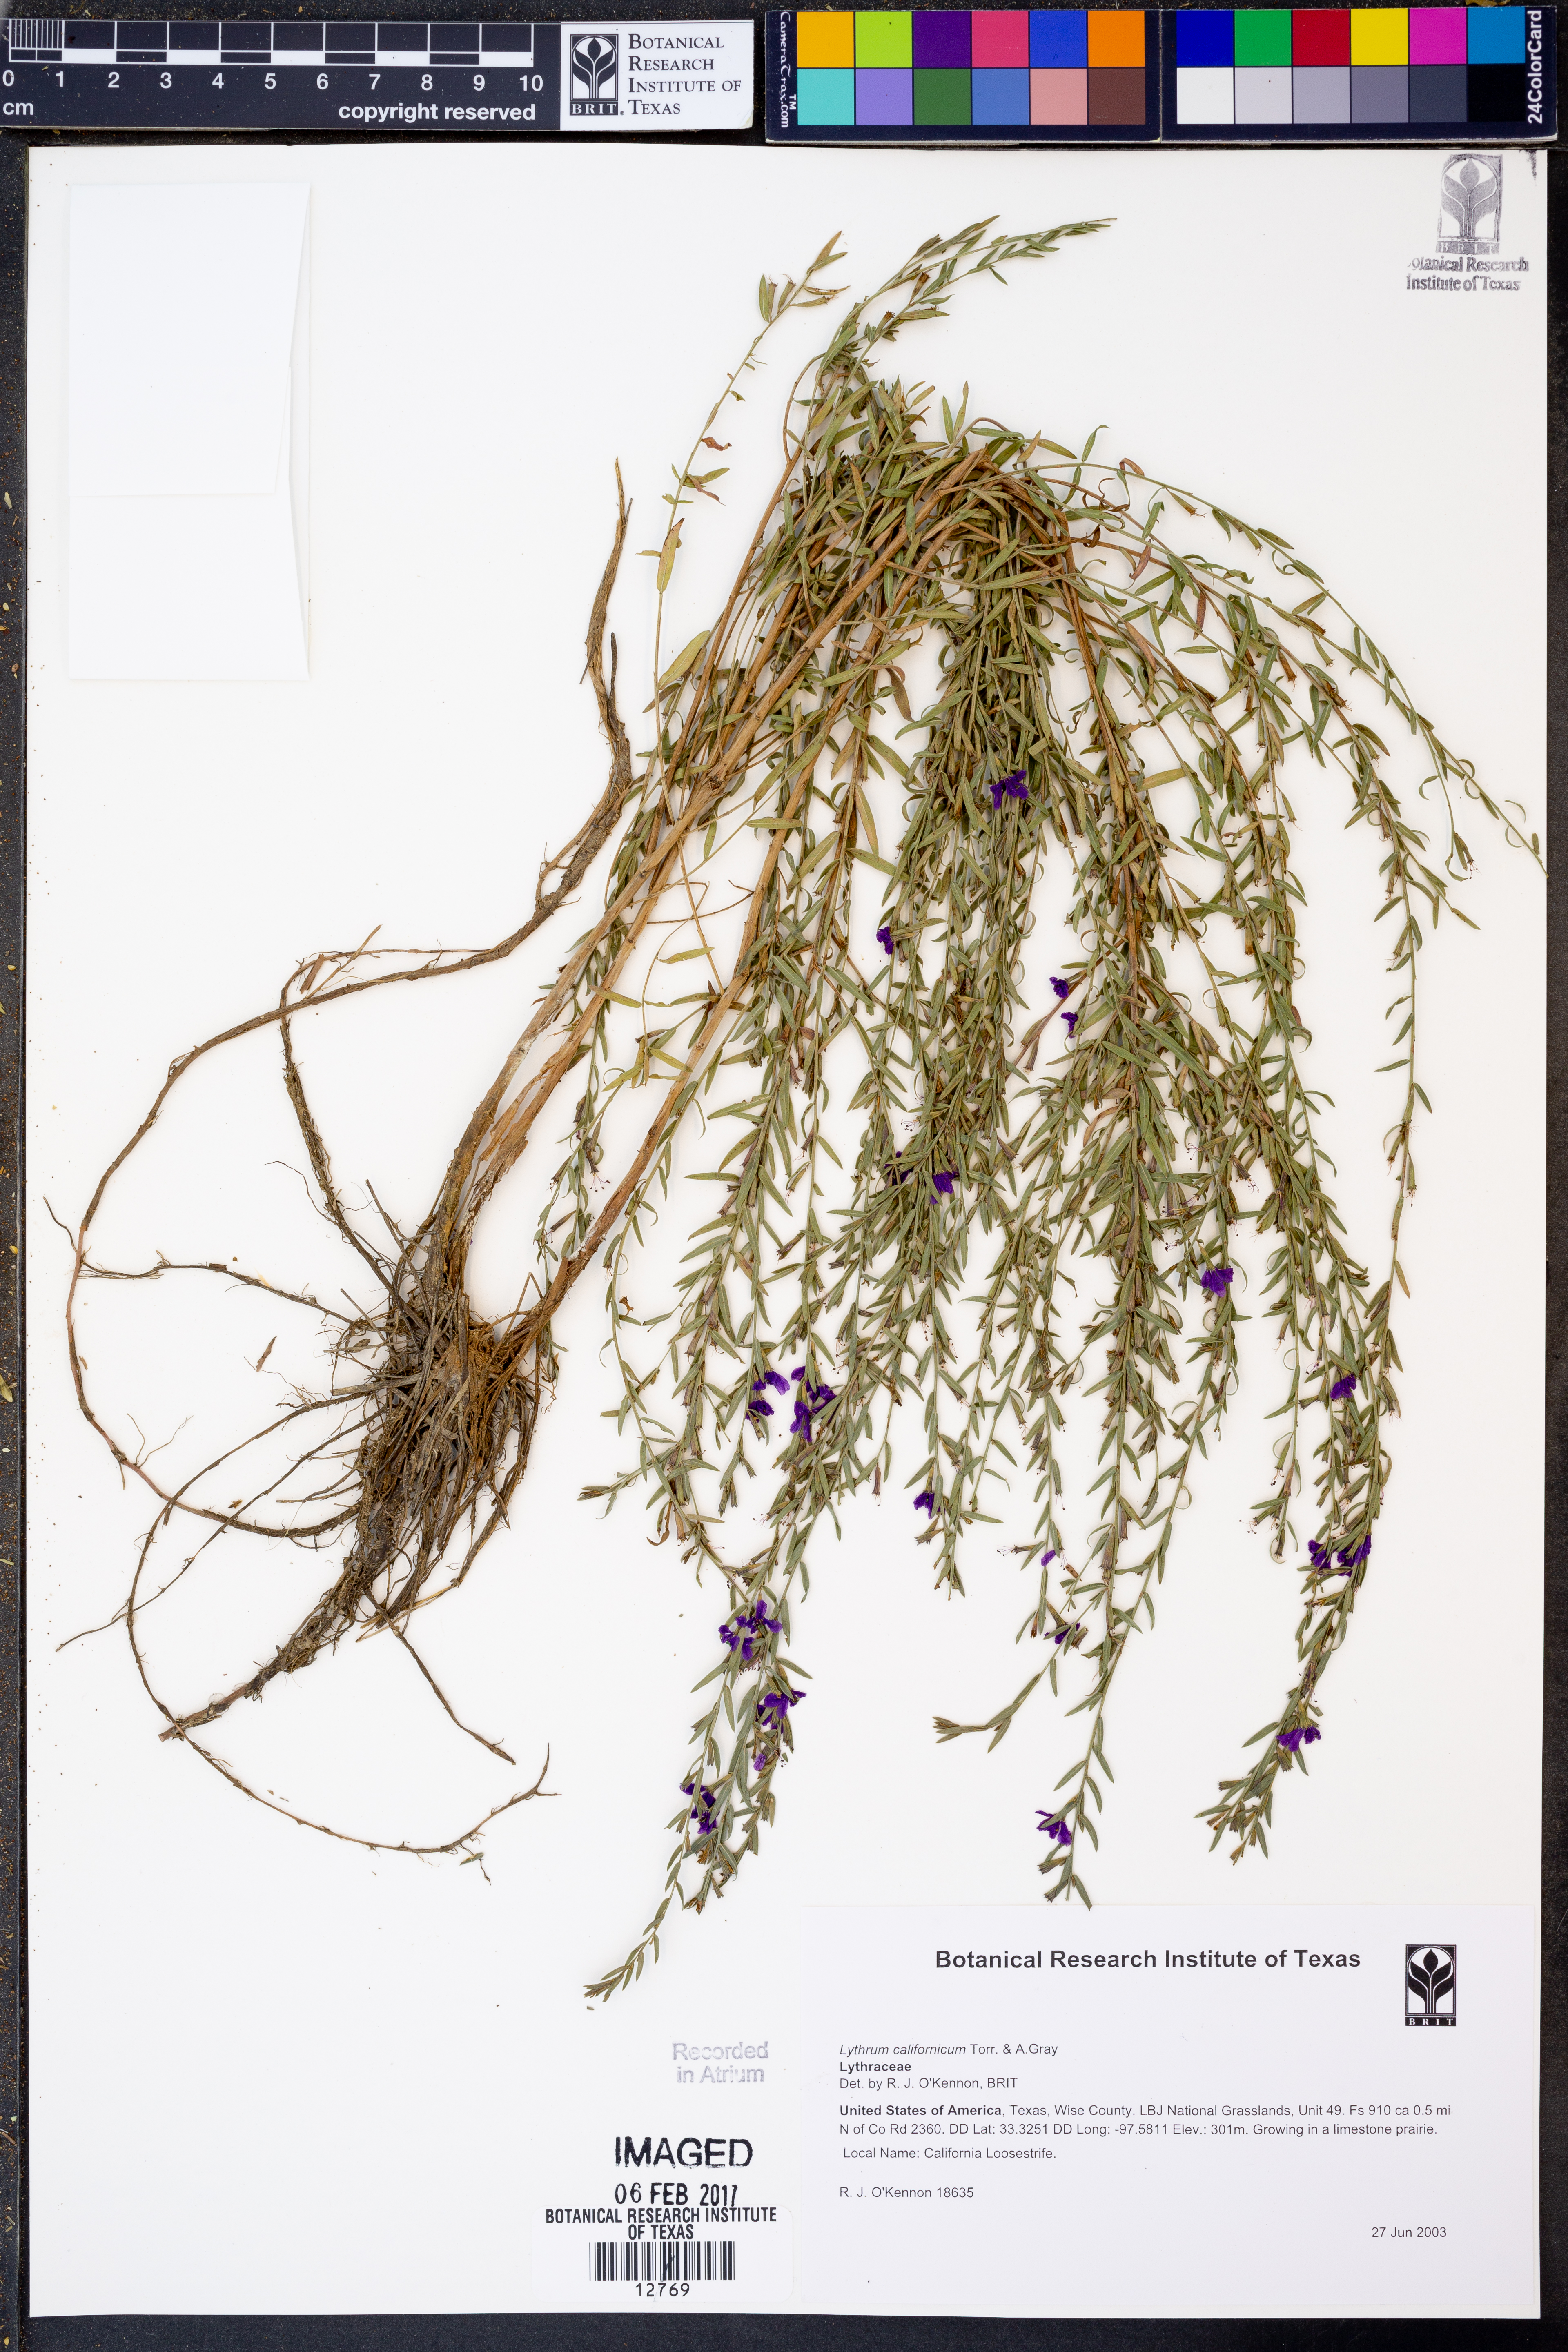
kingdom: Plantae
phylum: Tracheophyta
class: Magnoliopsida
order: Myrtales
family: Lythraceae
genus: Lythrum
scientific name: Lythrum californicum
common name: California loosestrife
